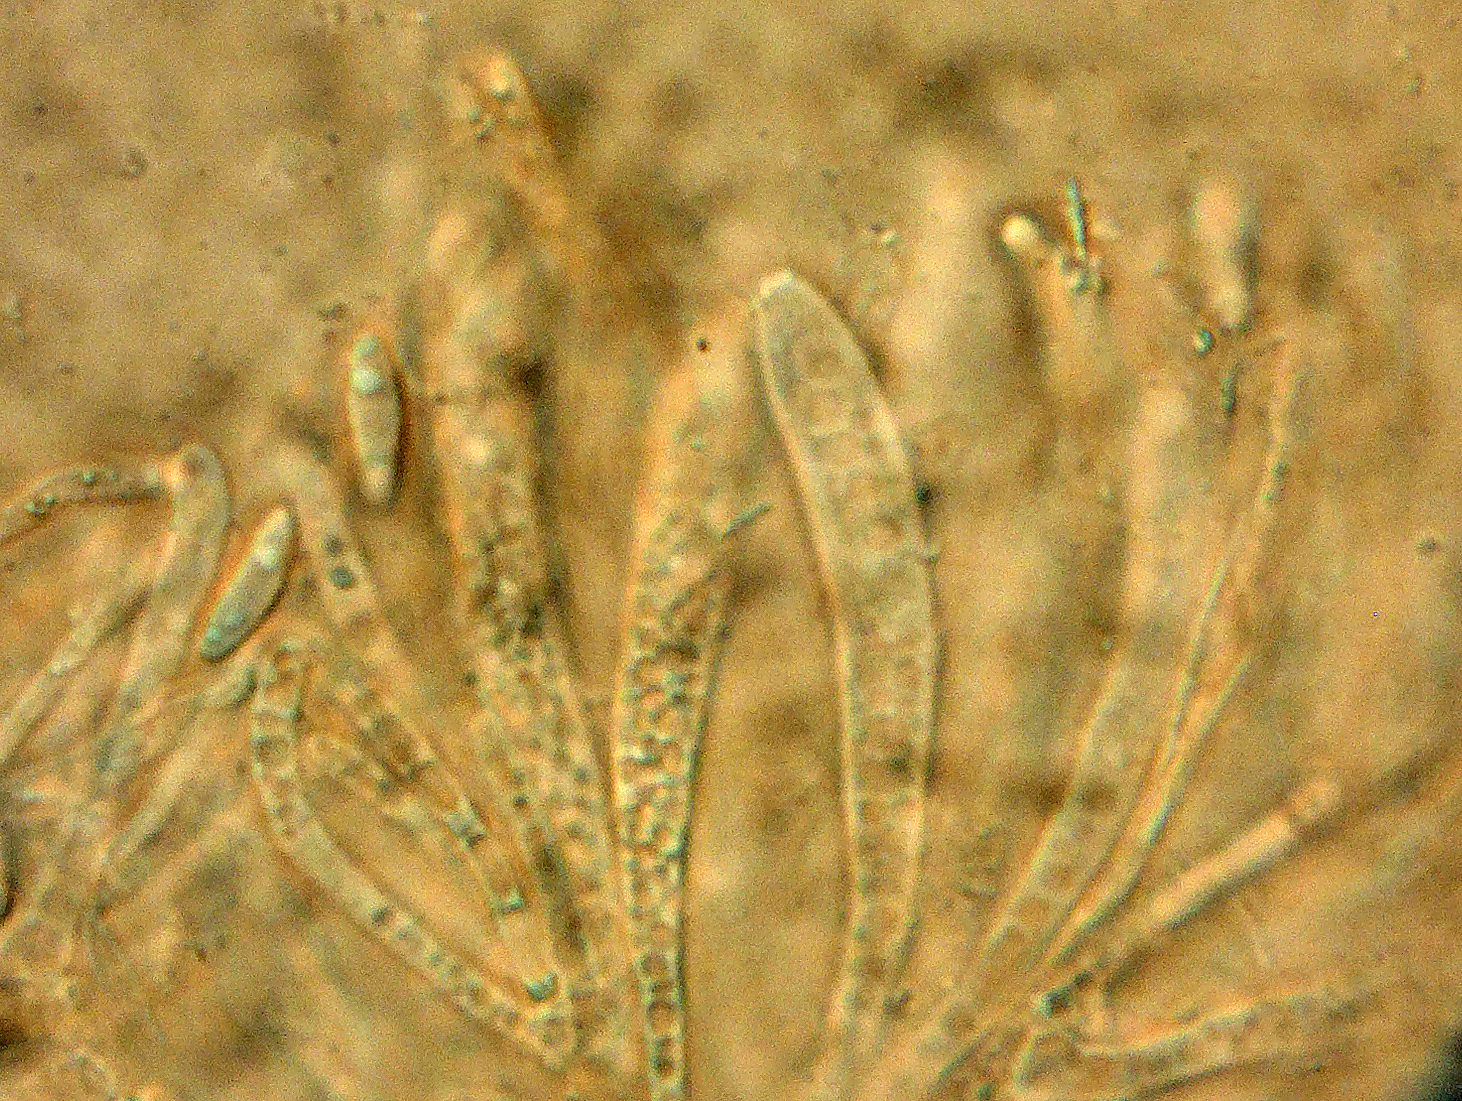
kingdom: Fungi
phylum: Ascomycota
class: Leotiomycetes
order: Helotiales
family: Helotiaceae
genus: Bryoscyphus
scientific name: Bryoscyphus phascoides
